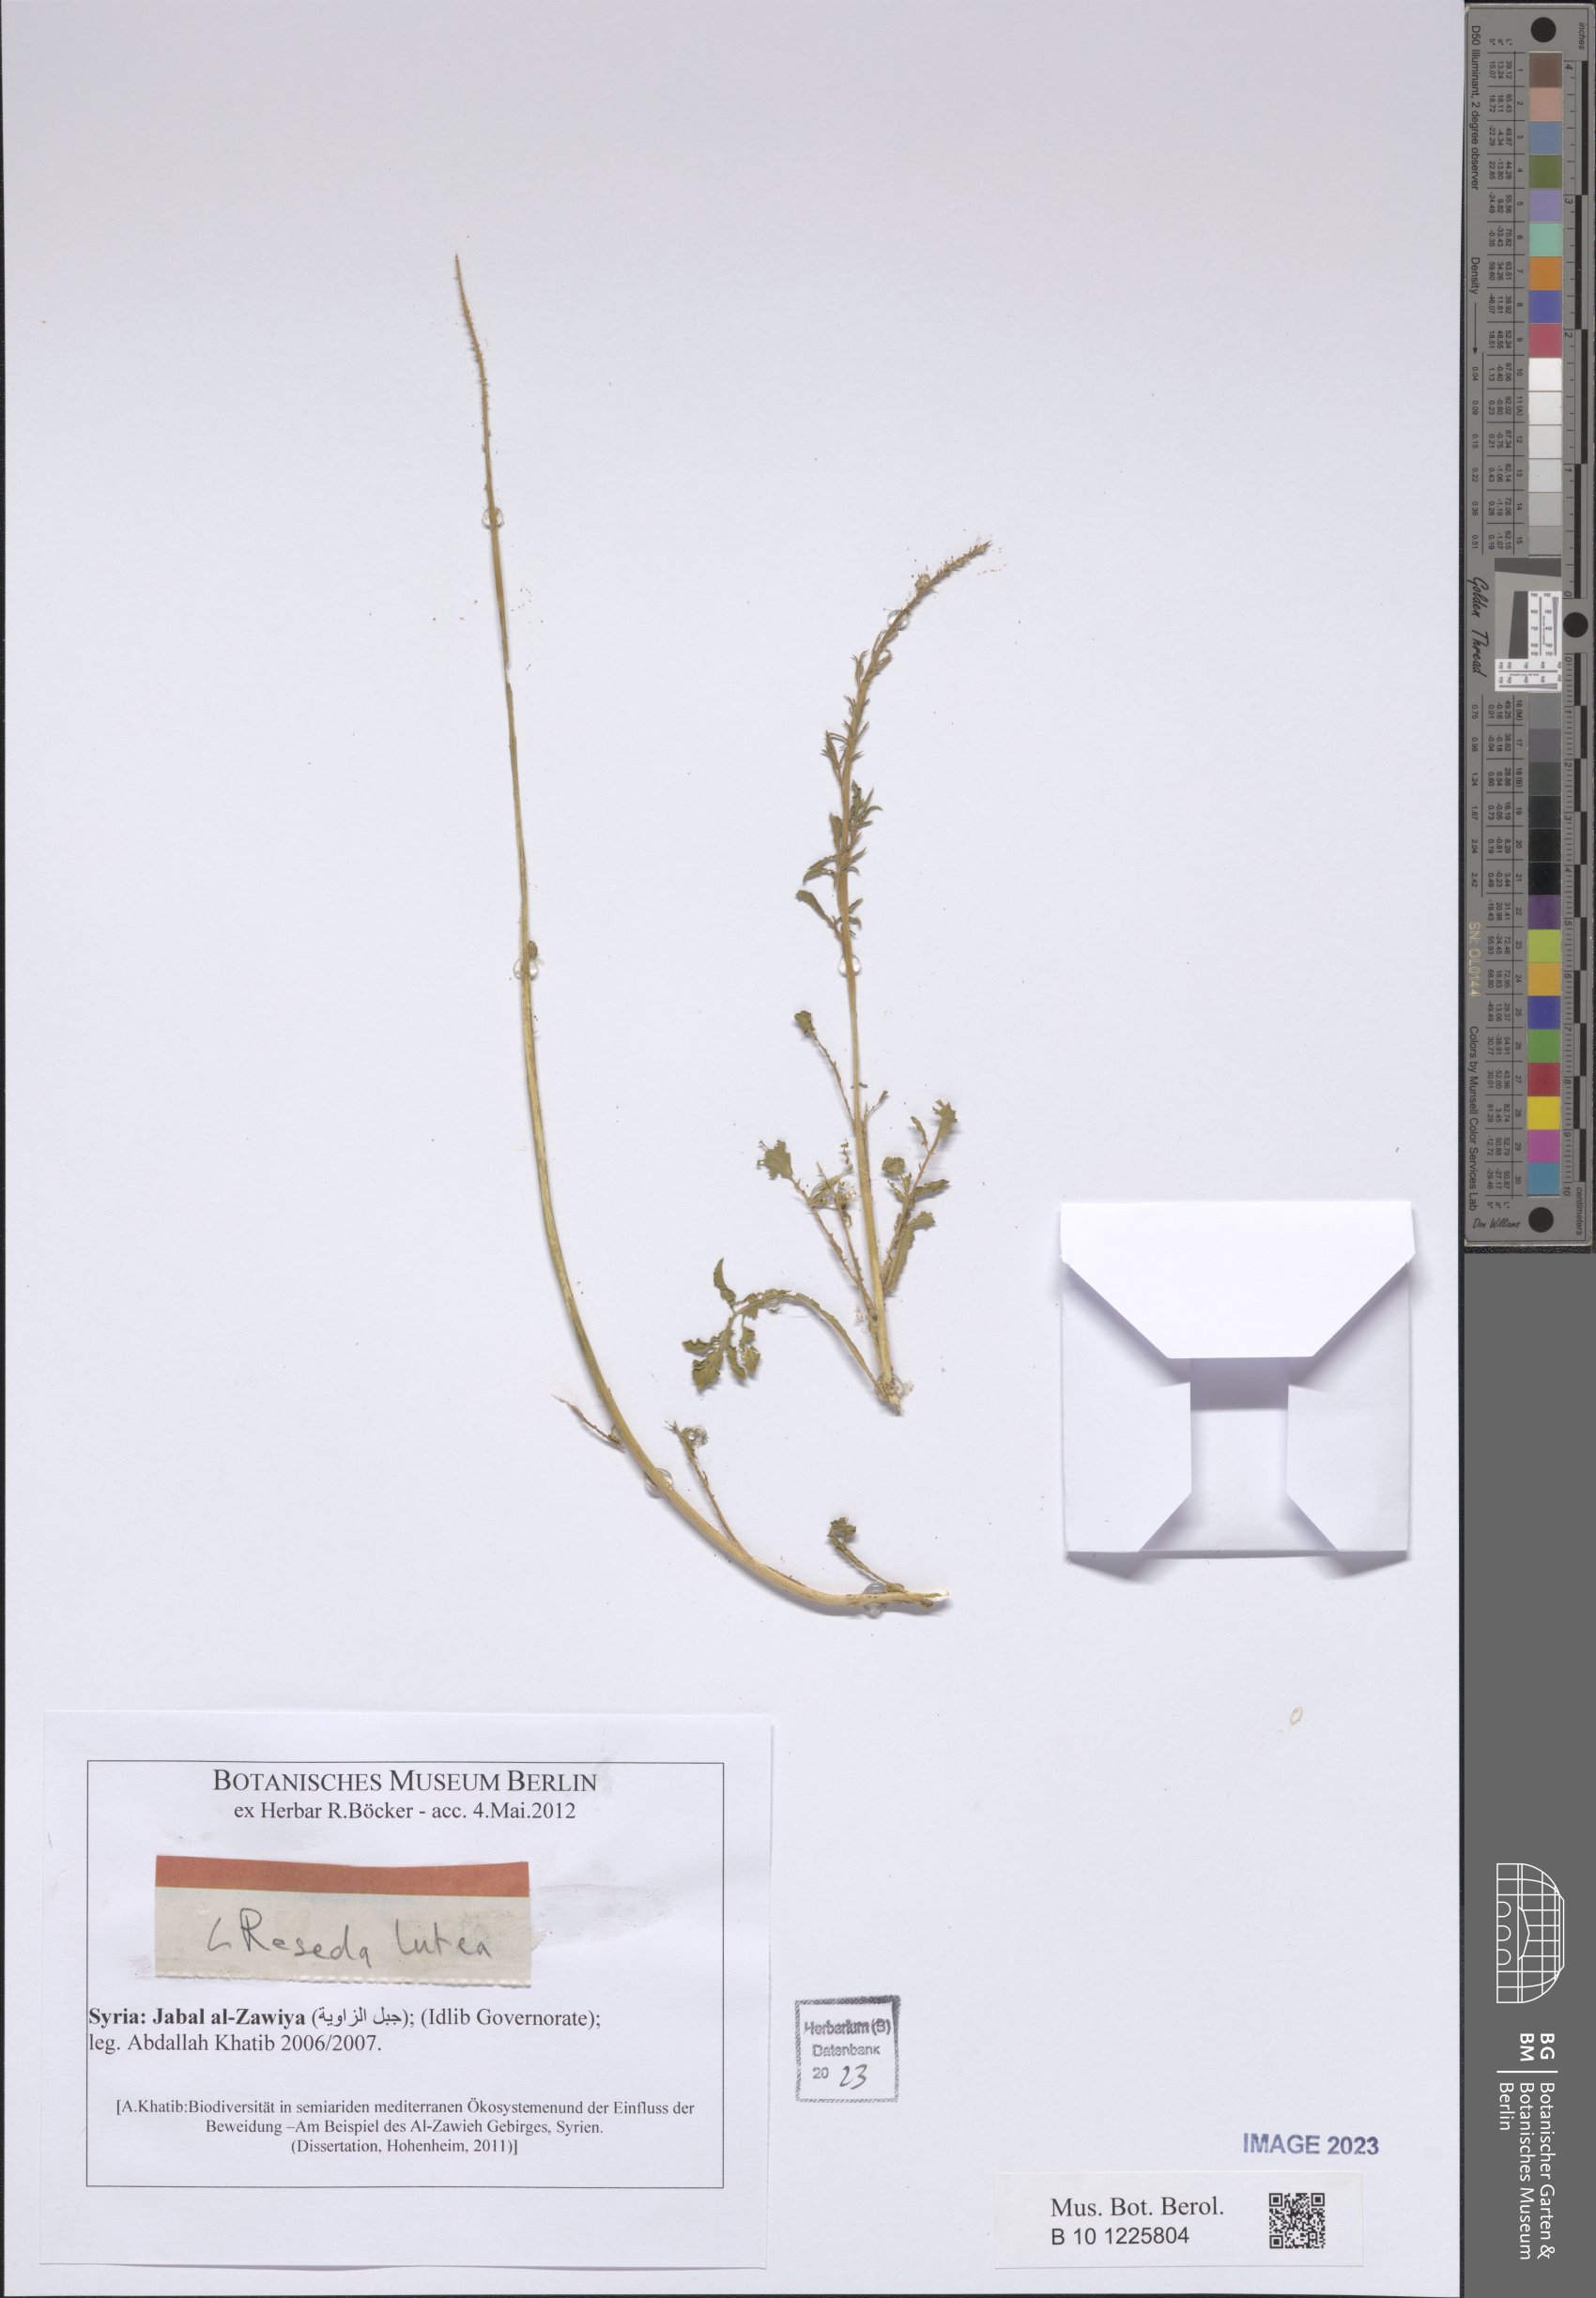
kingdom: Plantae
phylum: Tracheophyta
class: Magnoliopsida
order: Brassicales
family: Resedaceae
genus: Reseda
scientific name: Reseda lutea
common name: Wild mignonette
